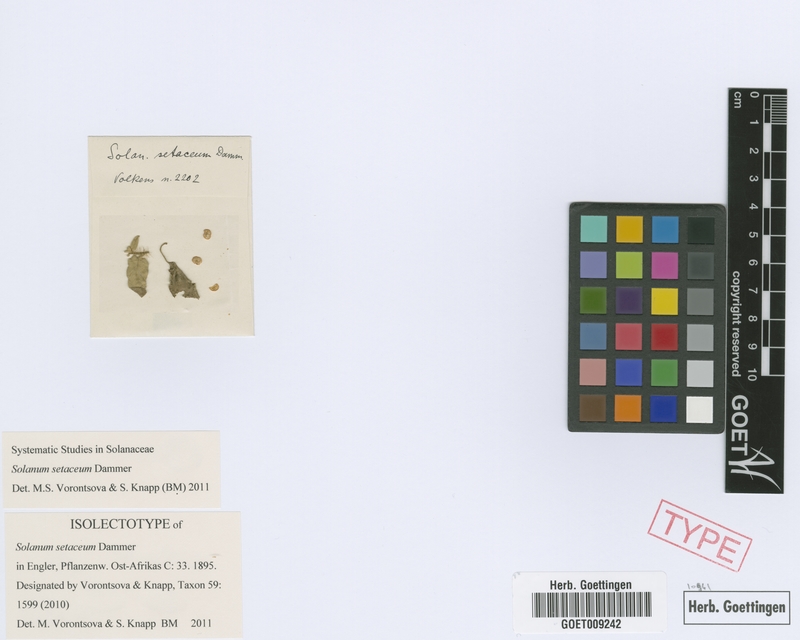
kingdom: Plantae
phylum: Tracheophyta
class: Magnoliopsida
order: Solanales
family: Solanaceae
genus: Solanum
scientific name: Solanum setaceum
